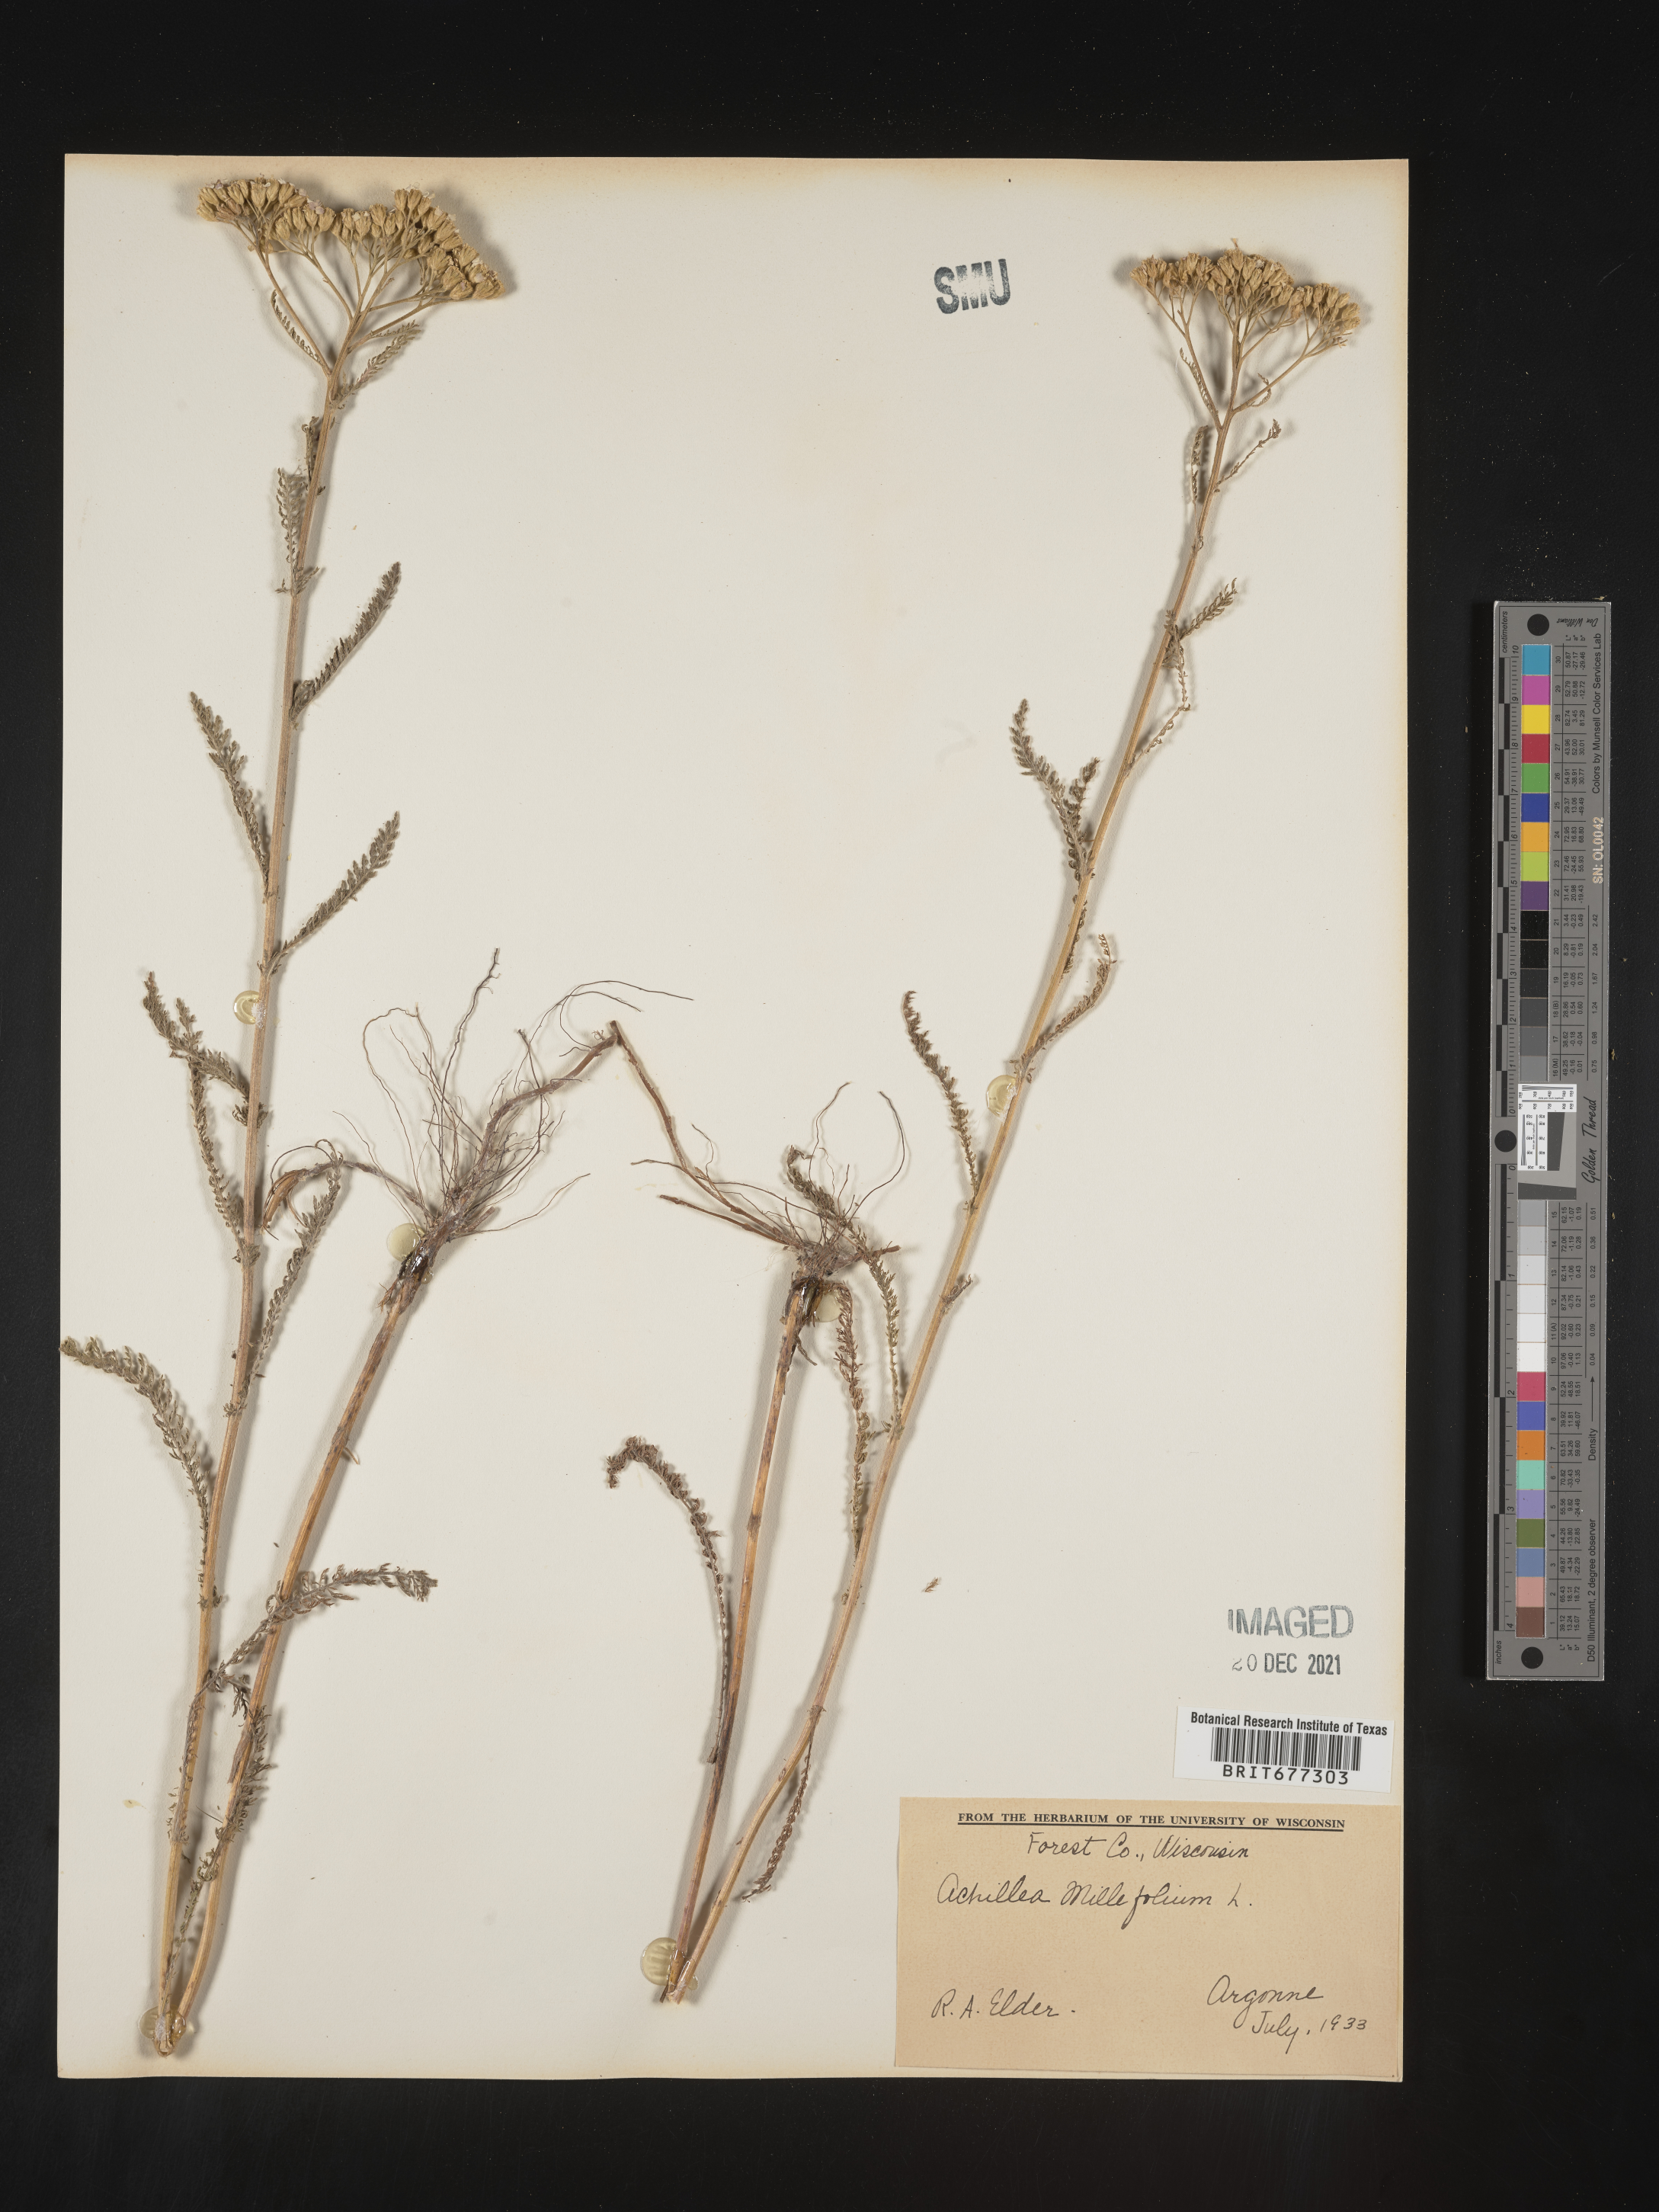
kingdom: Plantae
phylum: Tracheophyta
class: Magnoliopsida
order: Asterales
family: Asteraceae
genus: Achillea
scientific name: Achillea millefolium
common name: Yarrow
